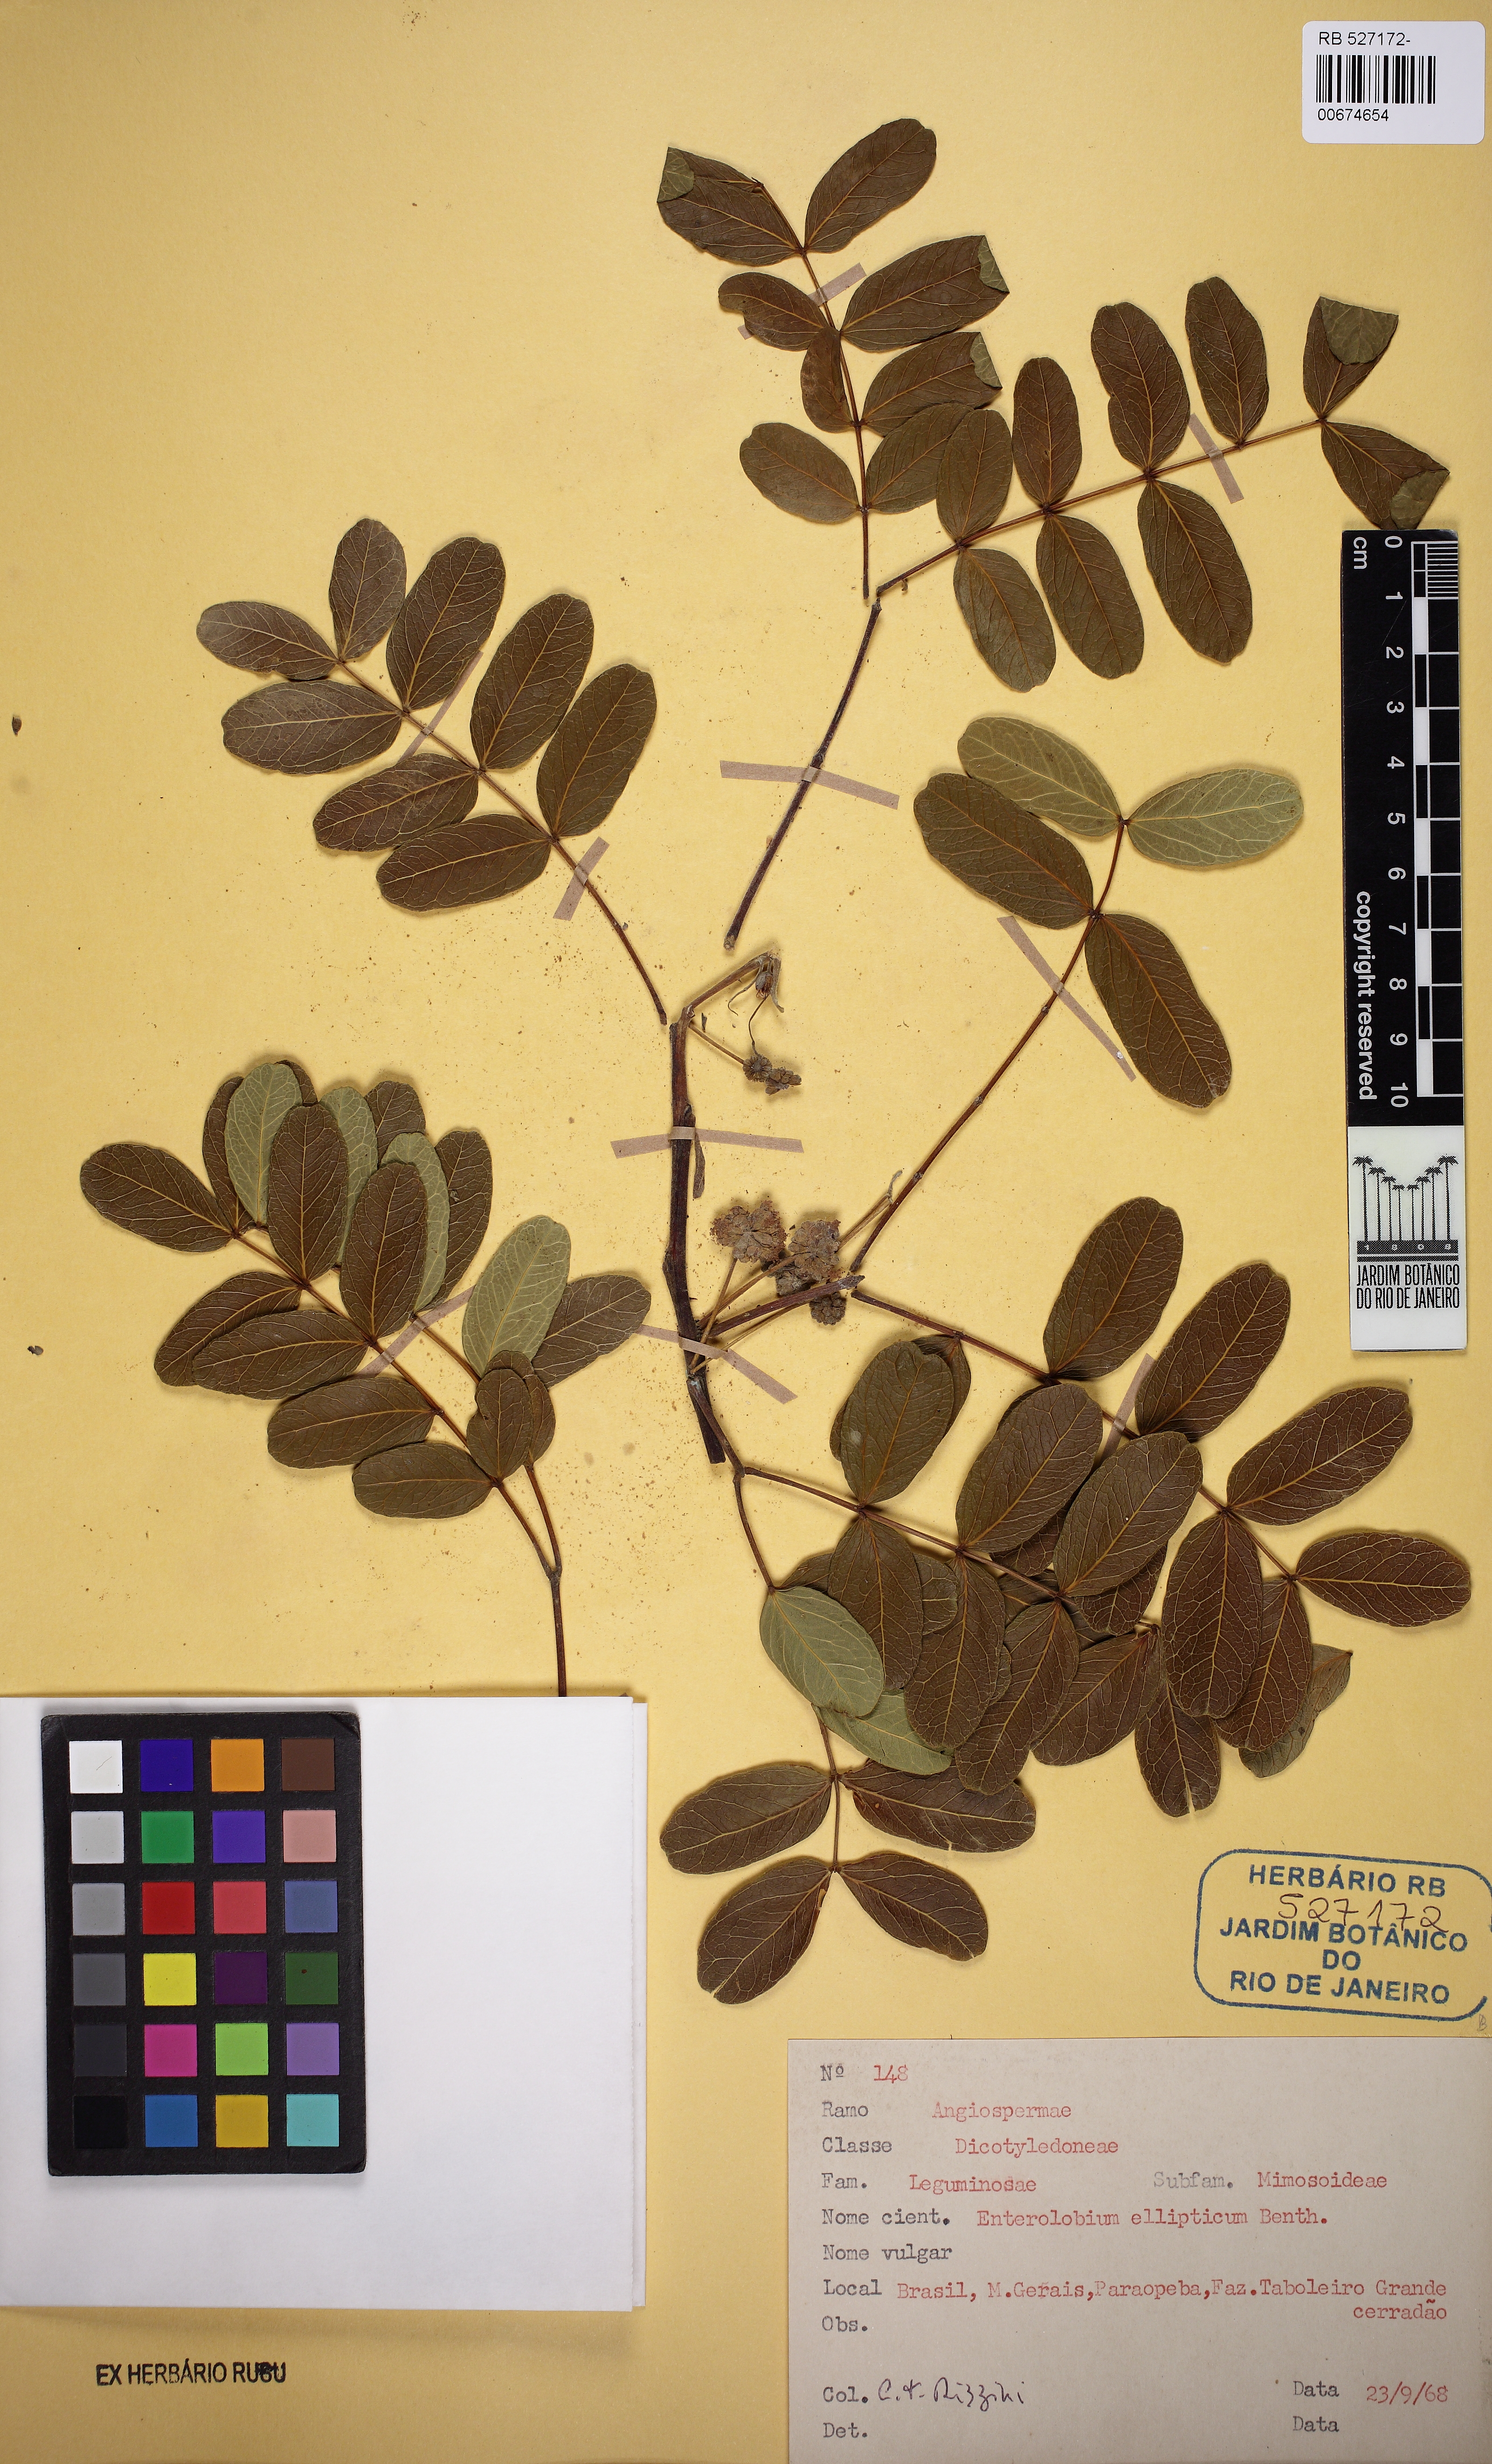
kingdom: Plantae
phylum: Tracheophyta
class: Magnoliopsida
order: Fabales
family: Fabaceae
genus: Enterolobium
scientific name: Enterolobium gummiferum
